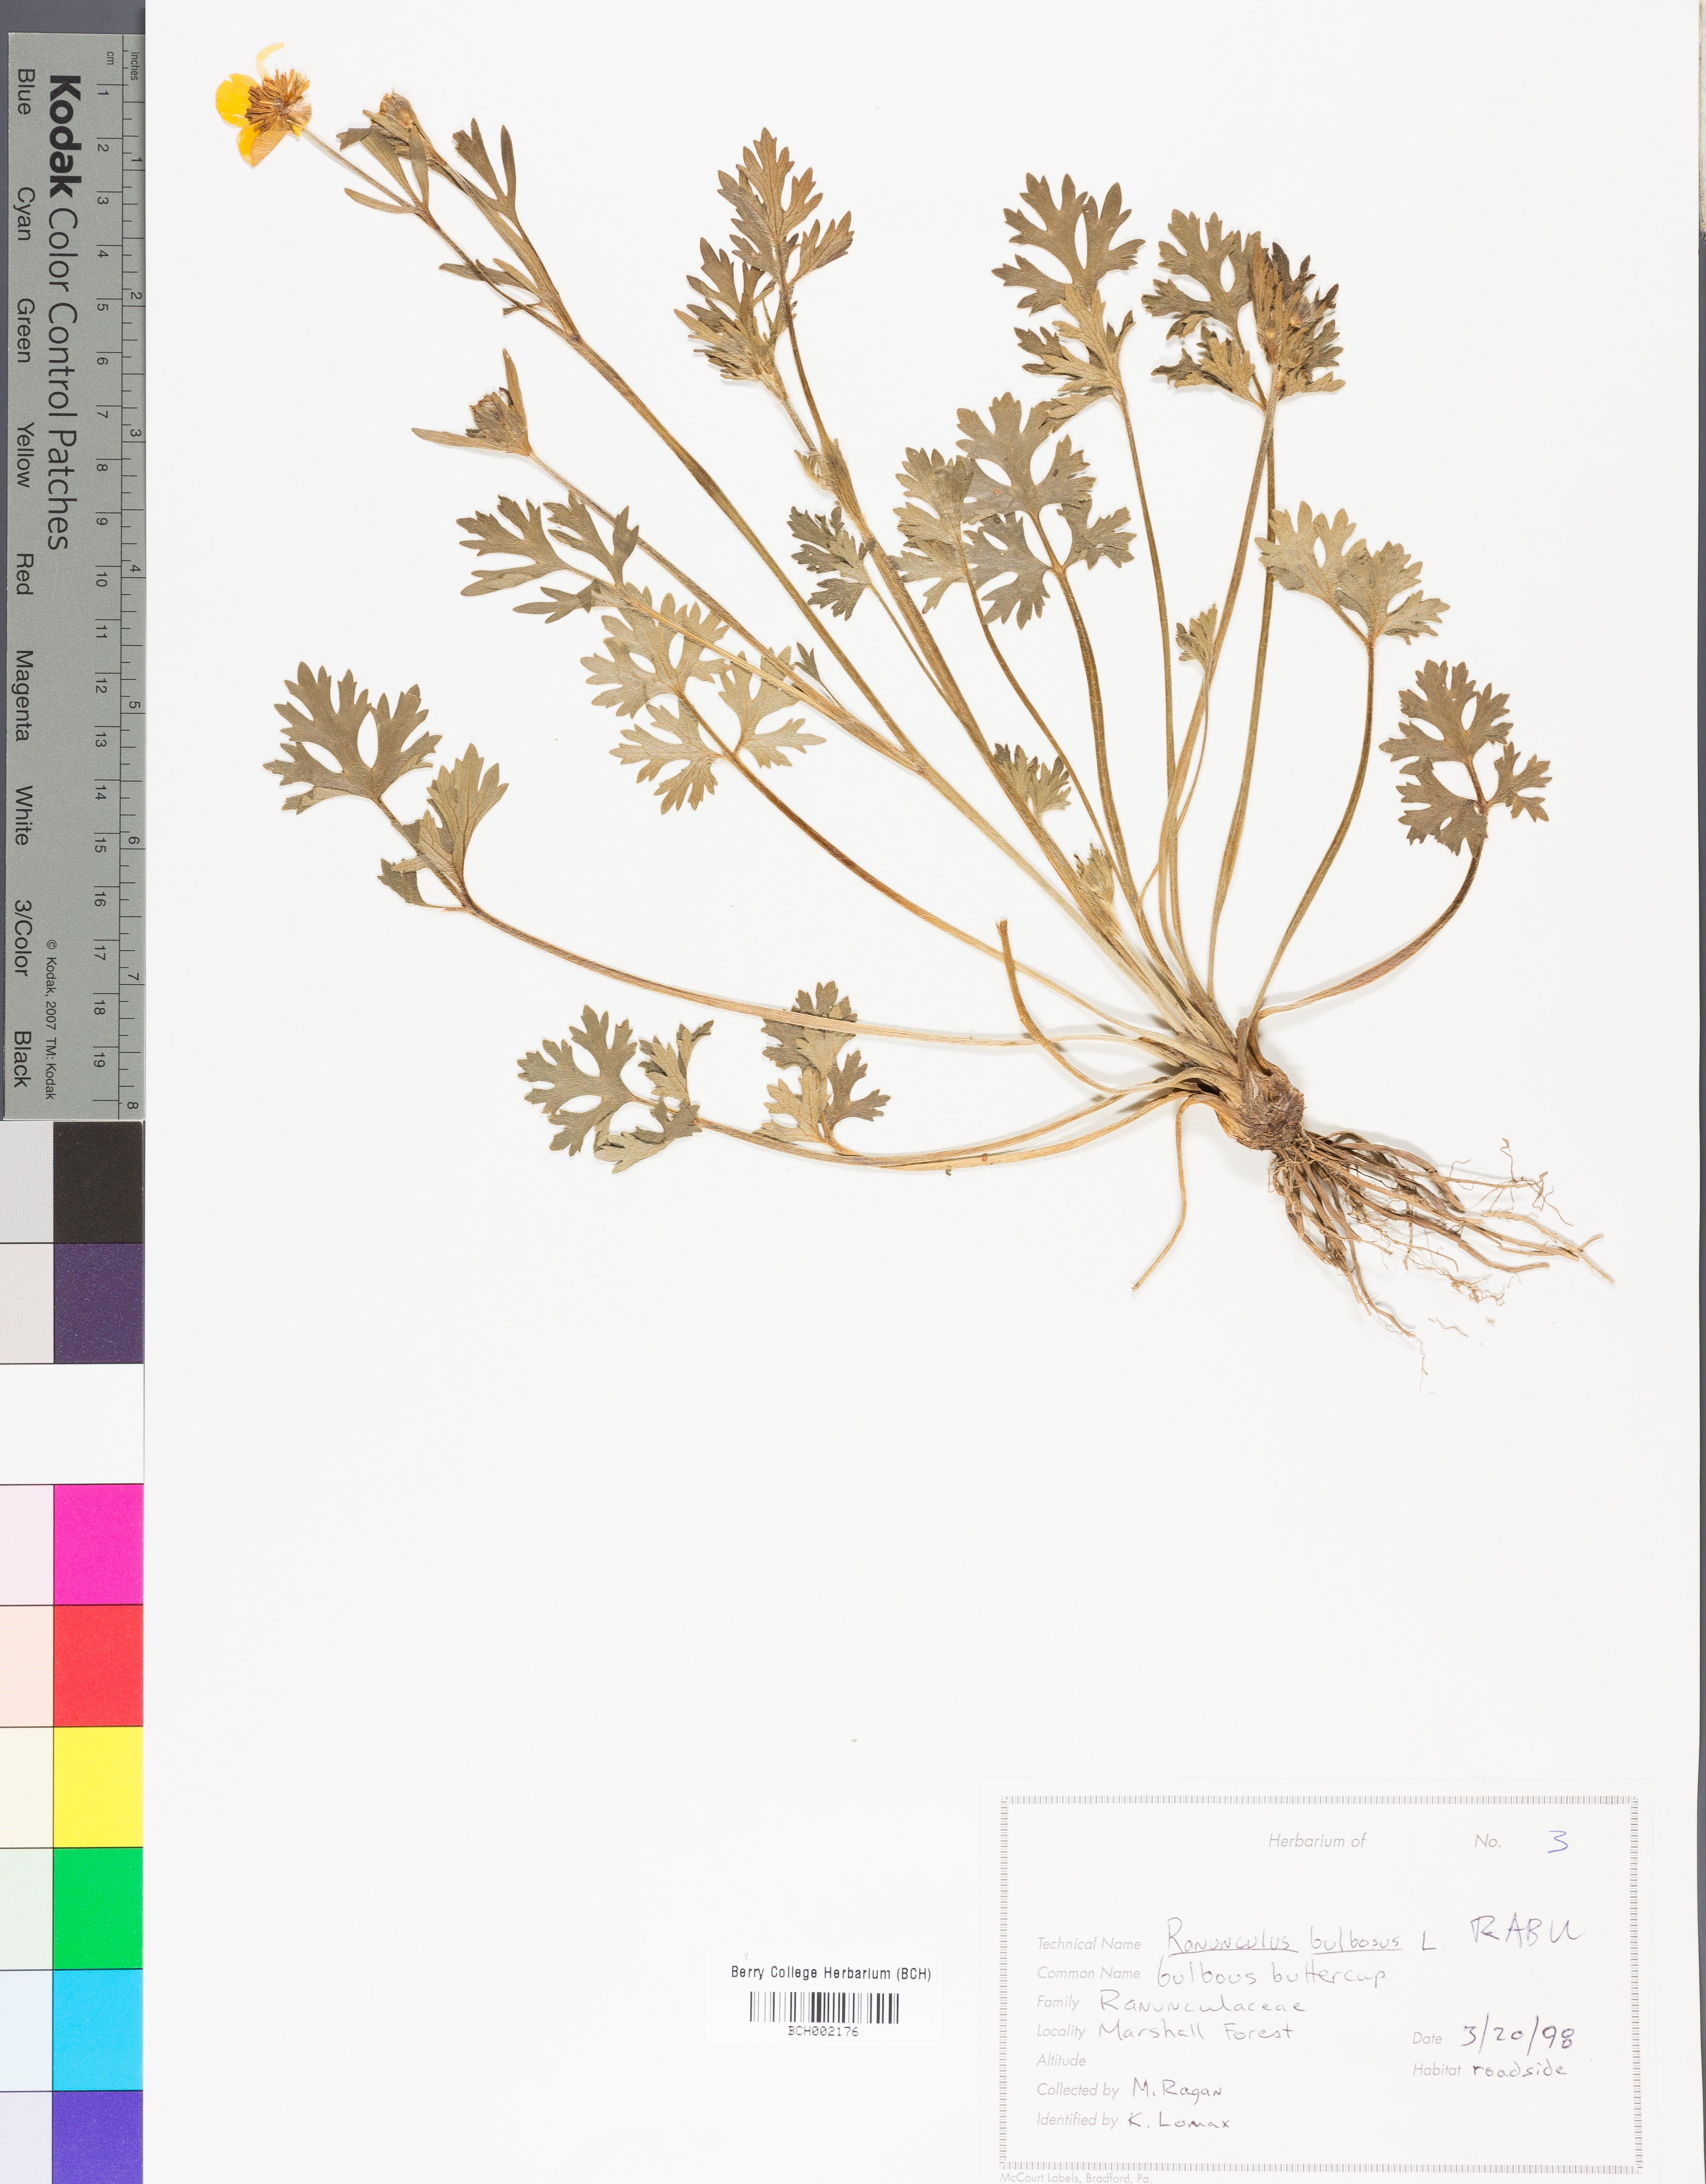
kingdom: Plantae
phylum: Tracheophyta
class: Magnoliopsida
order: Ranunculales
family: Ranunculaceae
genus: Ranunculus
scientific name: Ranunculus bulbosus
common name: Bulbous buttercup
